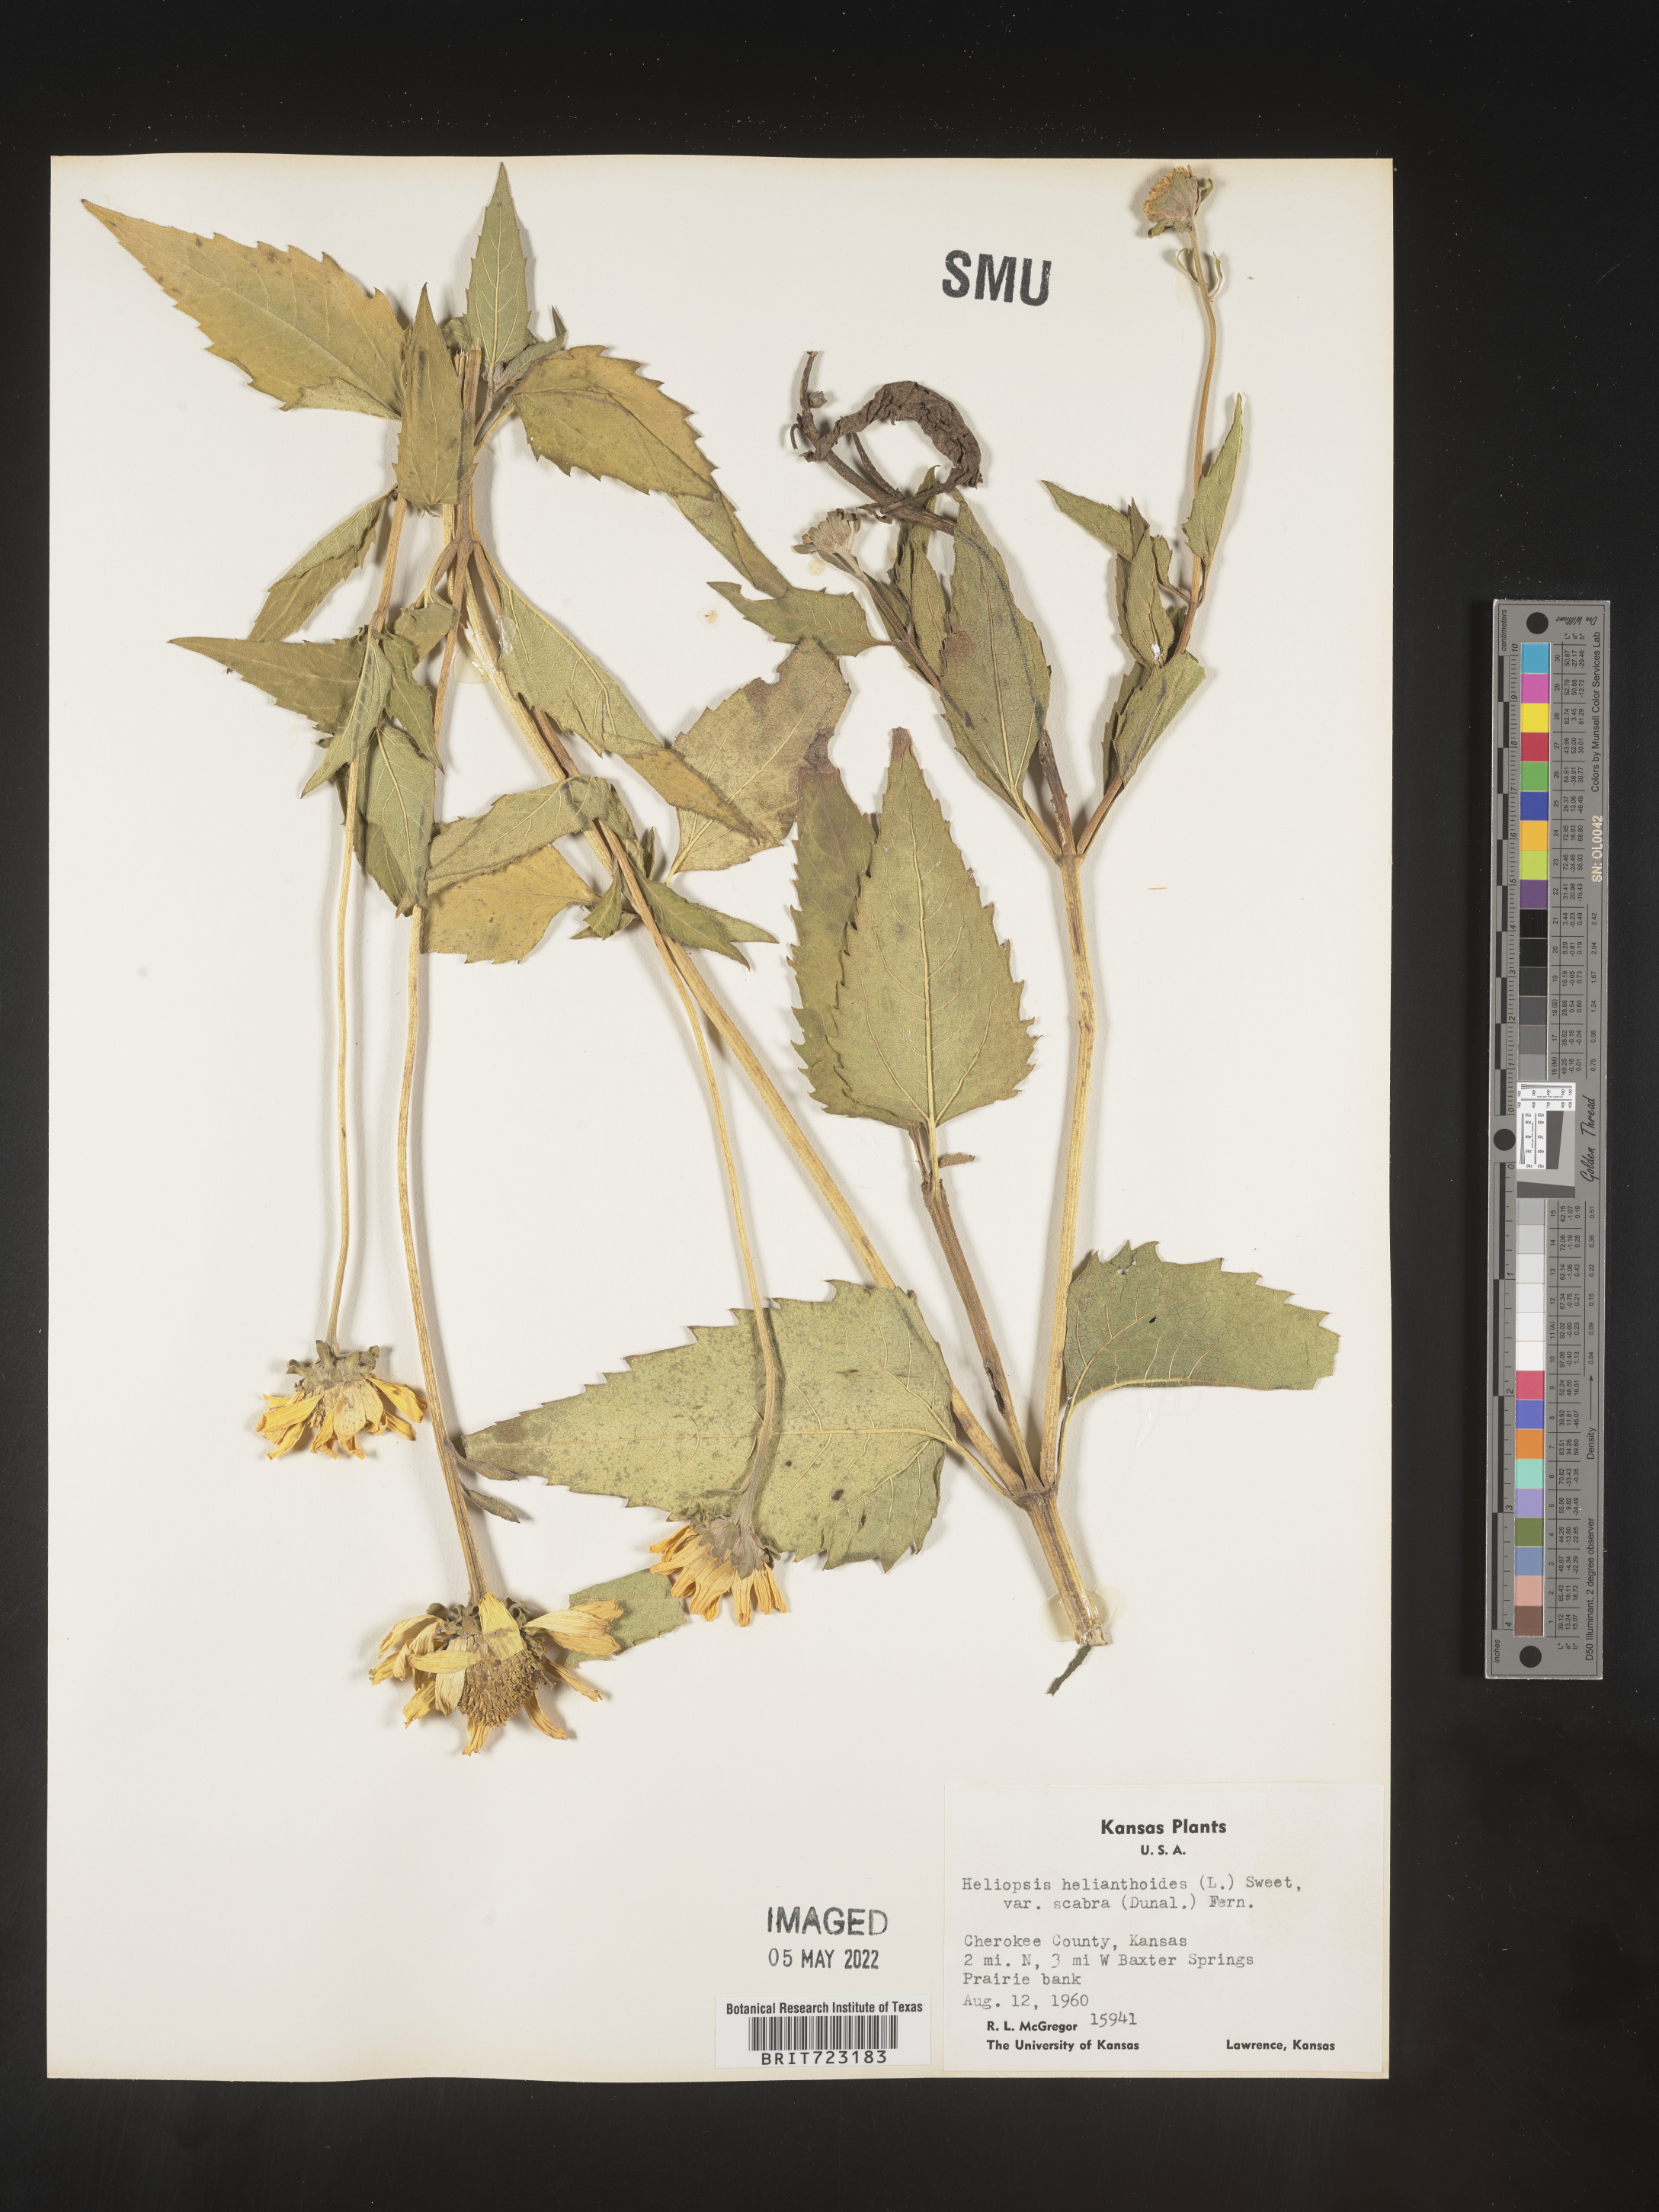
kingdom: Plantae
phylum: Tracheophyta
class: Magnoliopsida
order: Asterales
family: Asteraceae
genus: Heliopsis
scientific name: Heliopsis helianthoides
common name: False sunflower
